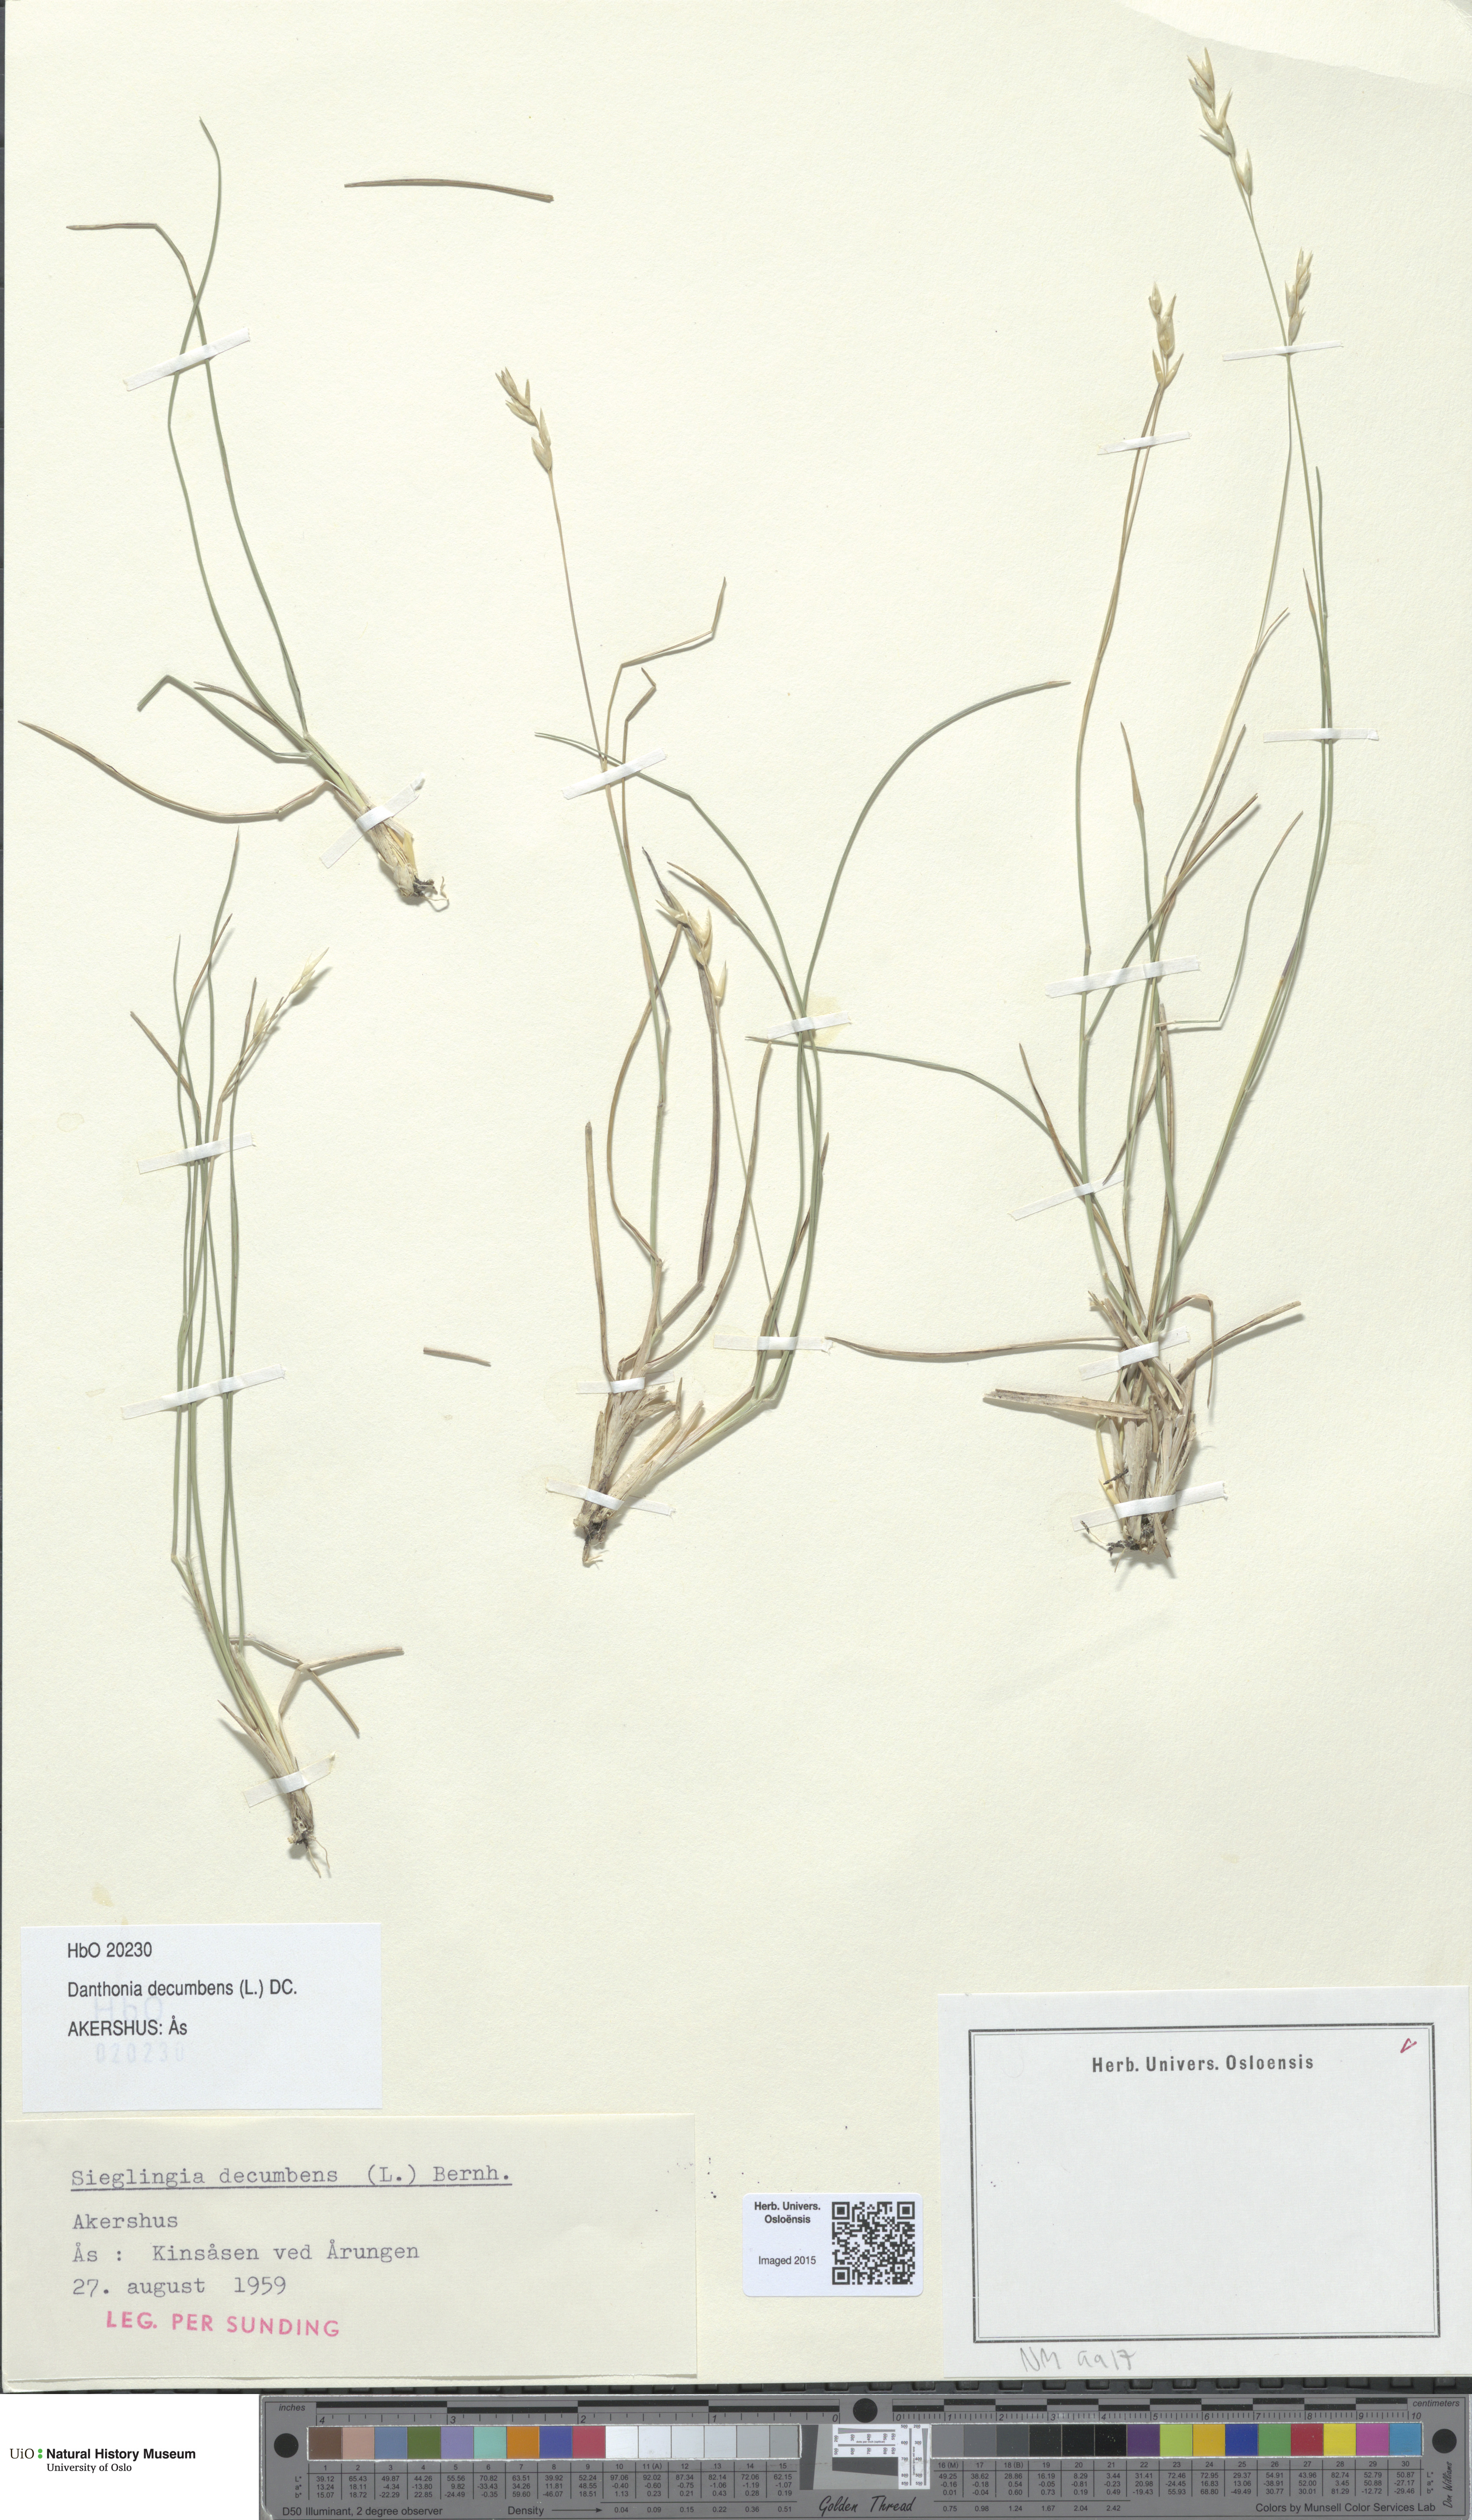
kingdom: Plantae
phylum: Tracheophyta
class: Liliopsida
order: Poales
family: Poaceae
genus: Danthonia
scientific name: Danthonia decumbens
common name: Common heathgrass
